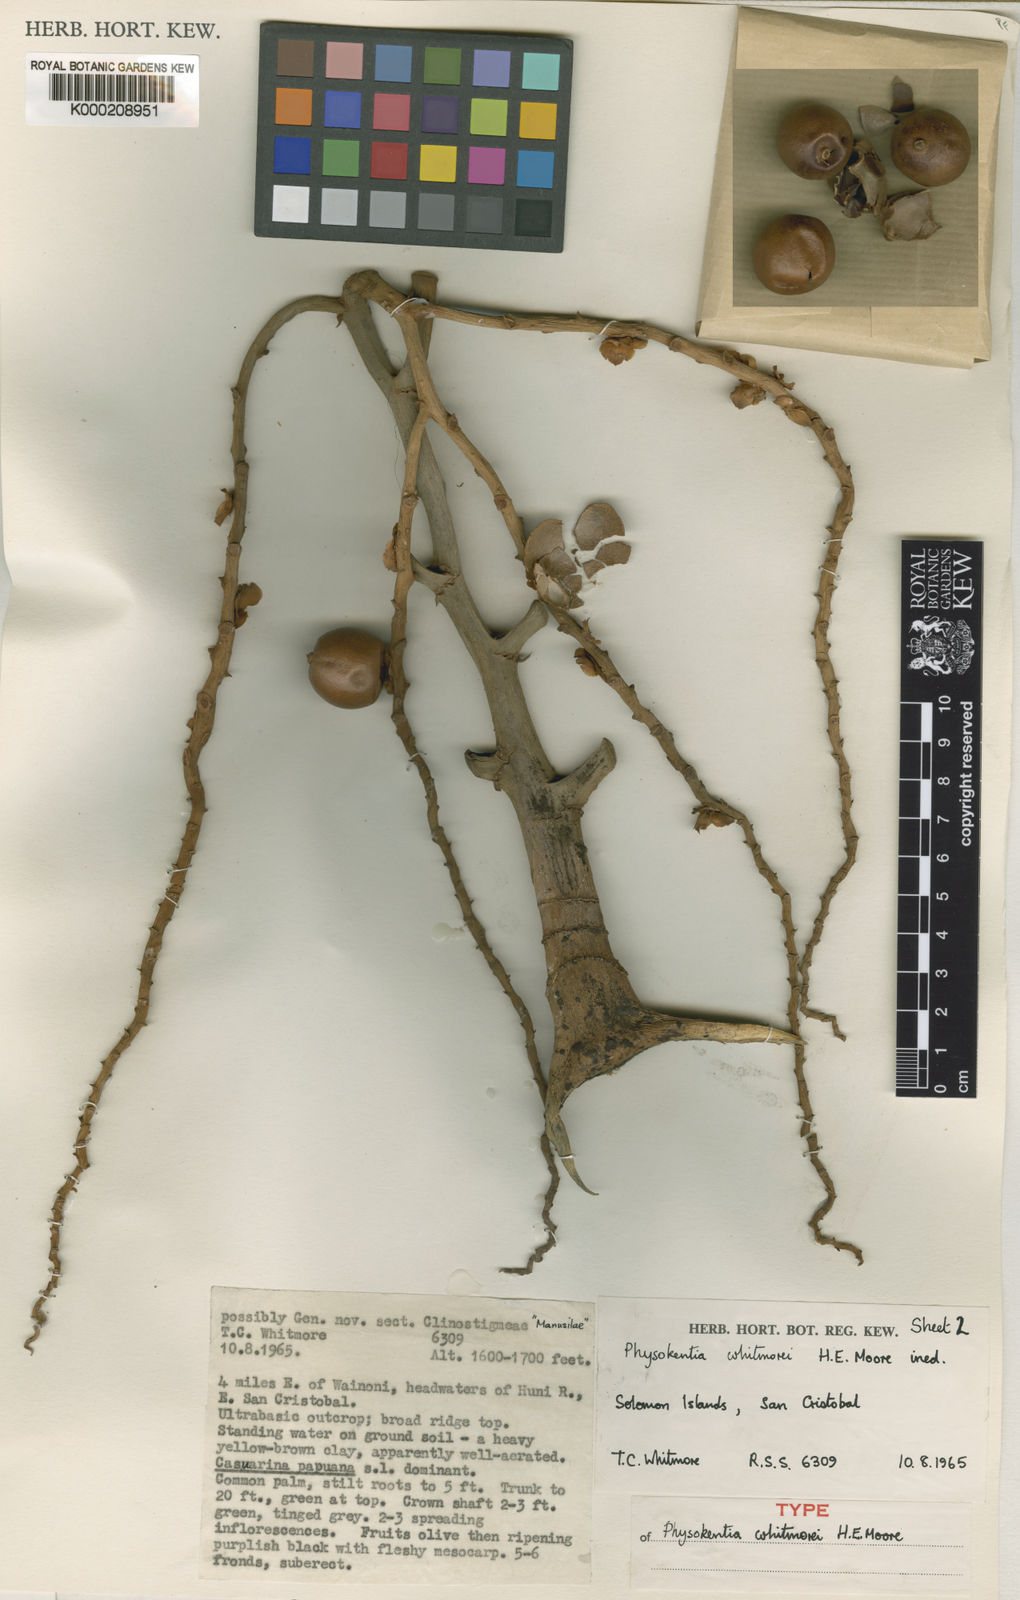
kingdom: Plantae
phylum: Tracheophyta
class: Liliopsida
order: Arecales
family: Arecaceae
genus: Physokentia
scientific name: Physokentia whitmorei
